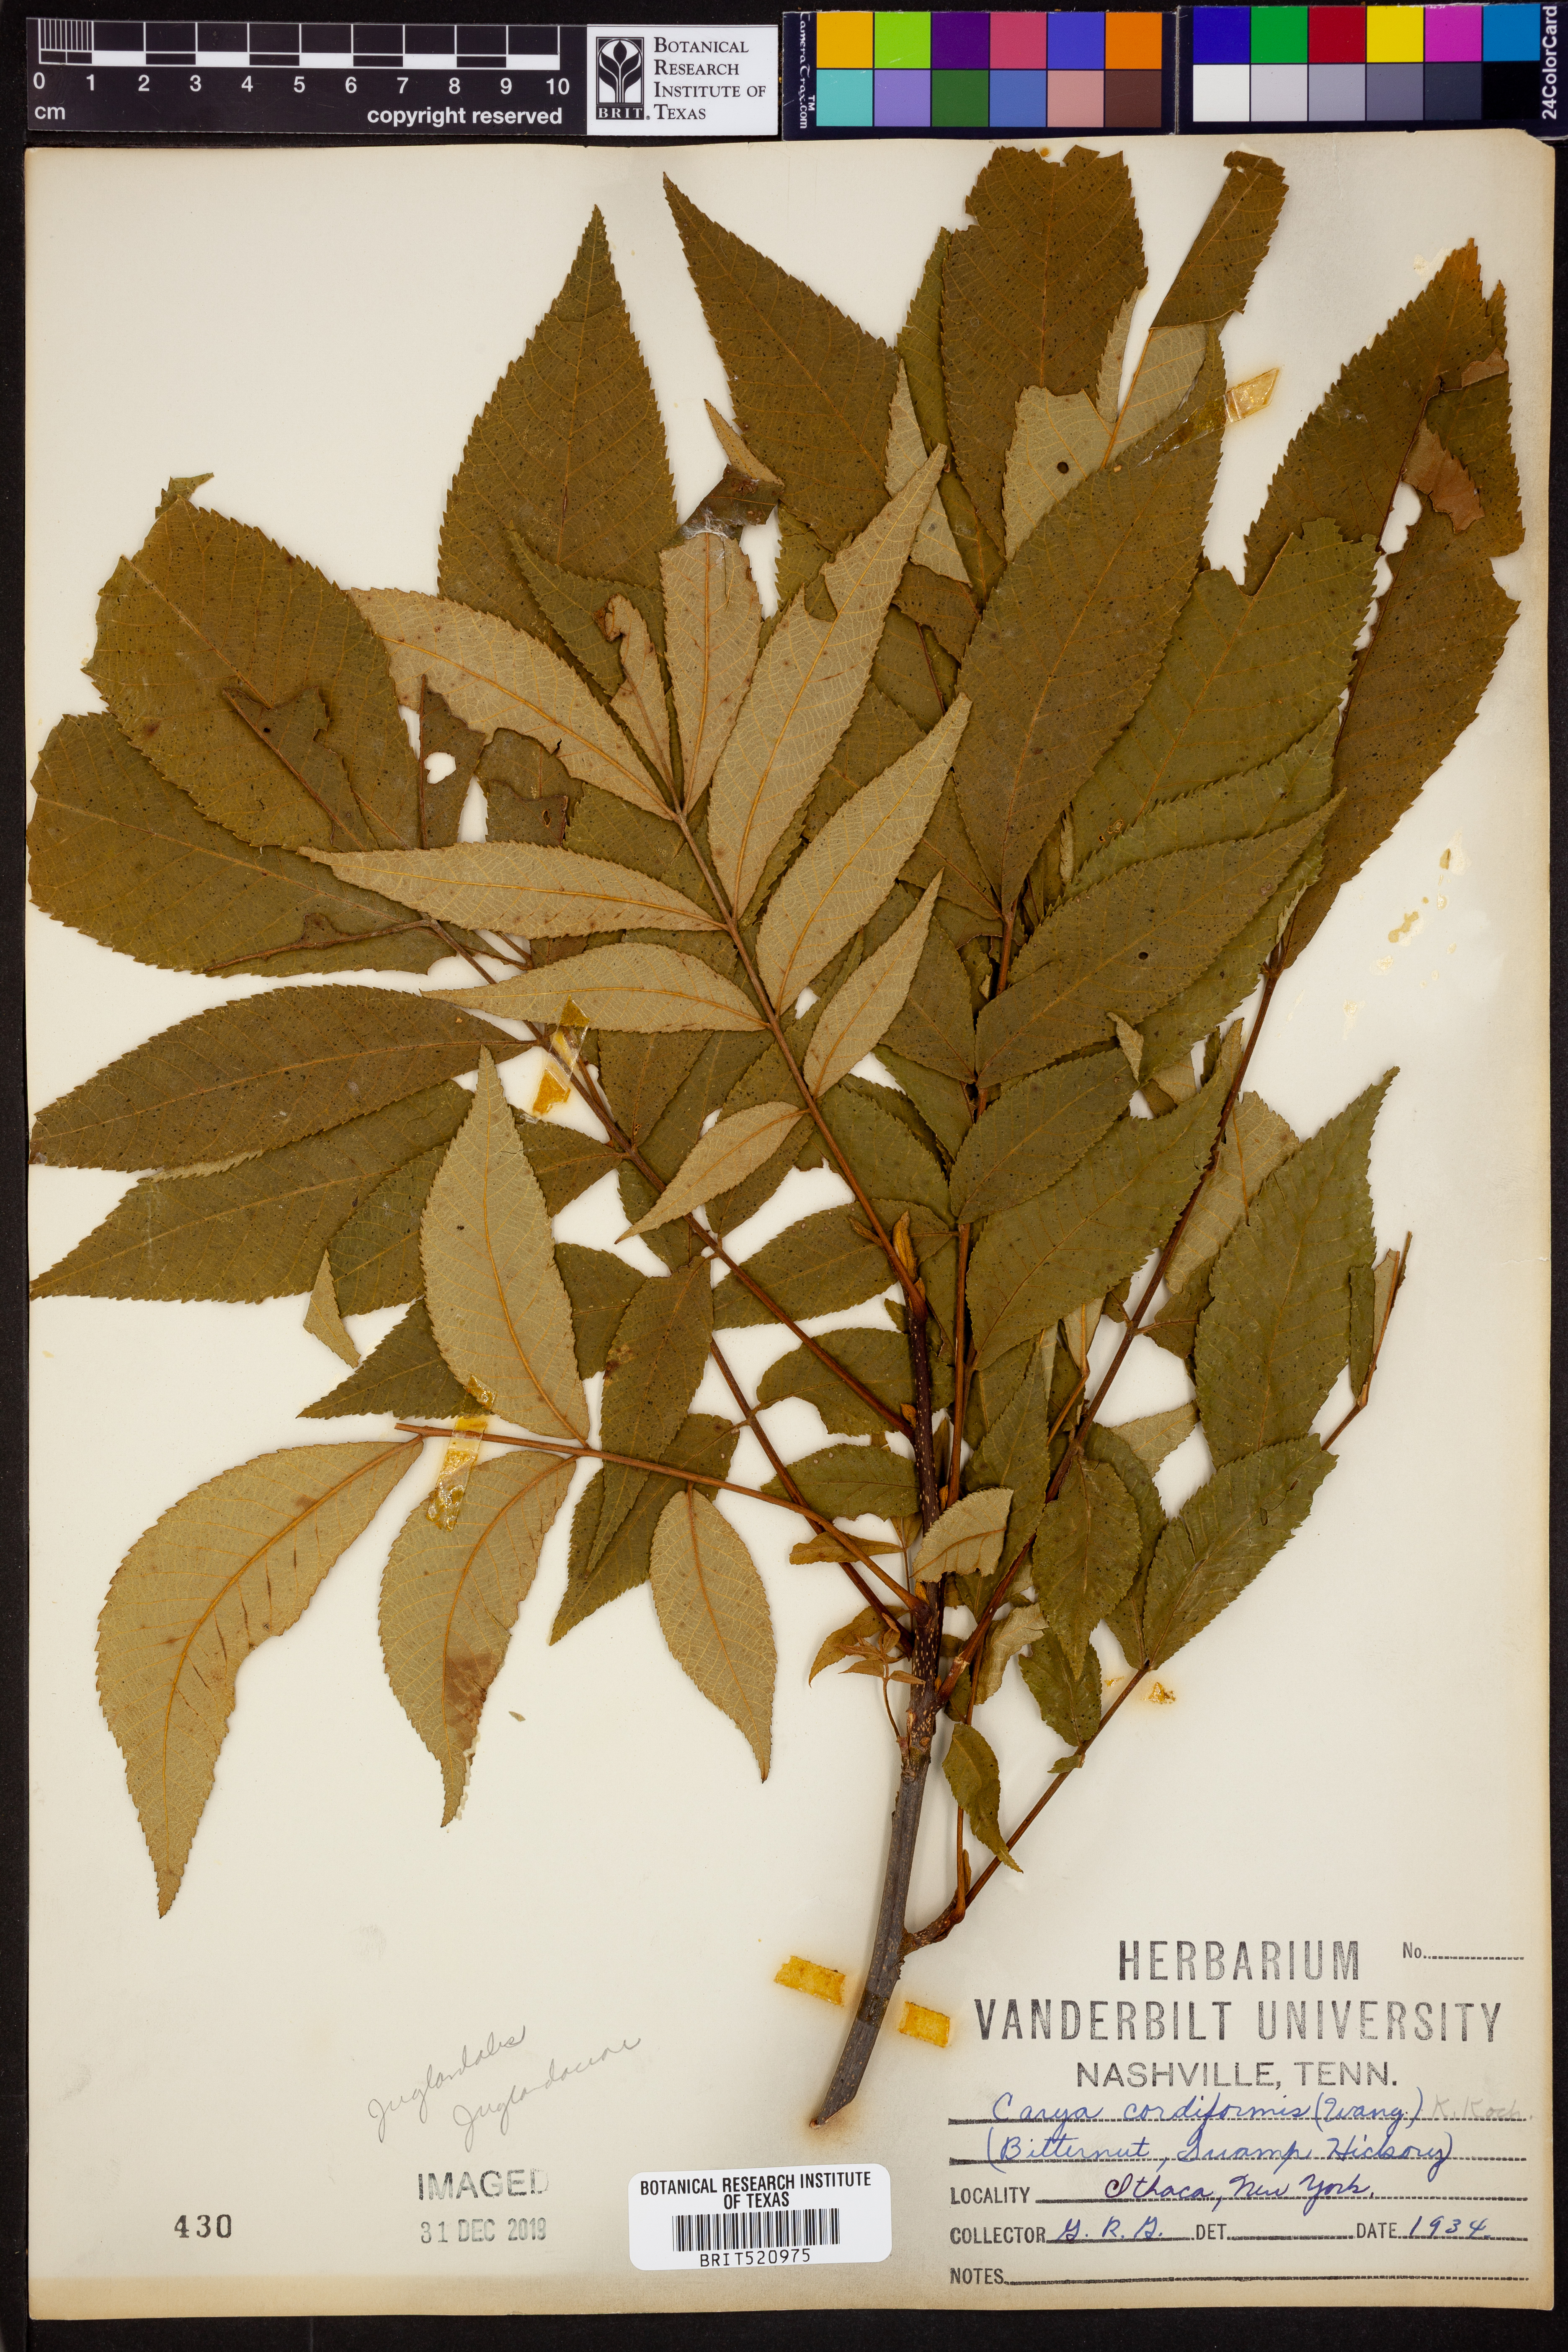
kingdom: Plantae
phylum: Tracheophyta
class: Magnoliopsida
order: Fagales
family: Juglandaceae
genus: Carya
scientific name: Carya cordiformis
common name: Bitternut hickory
